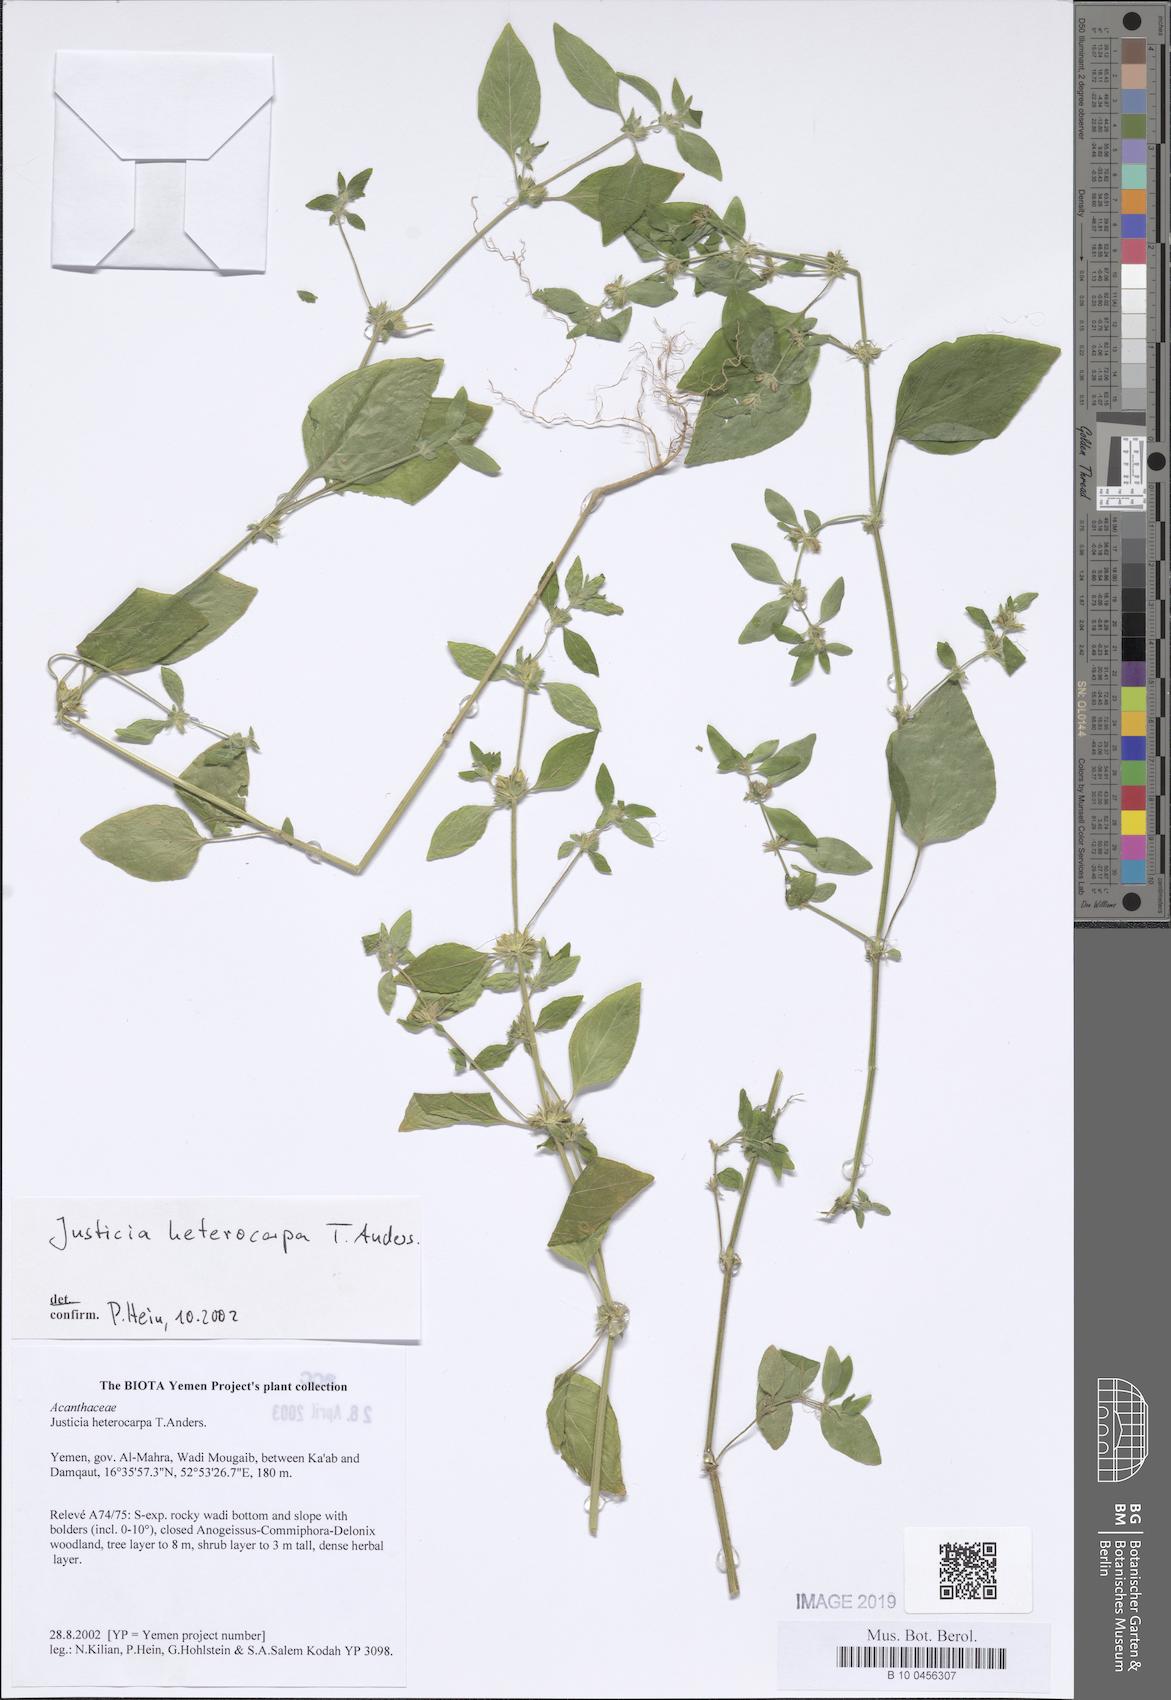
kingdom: Plantae
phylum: Tracheophyta
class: Magnoliopsida
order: Lamiales
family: Acanthaceae
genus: Justicia
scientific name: Justicia heterocarpa
